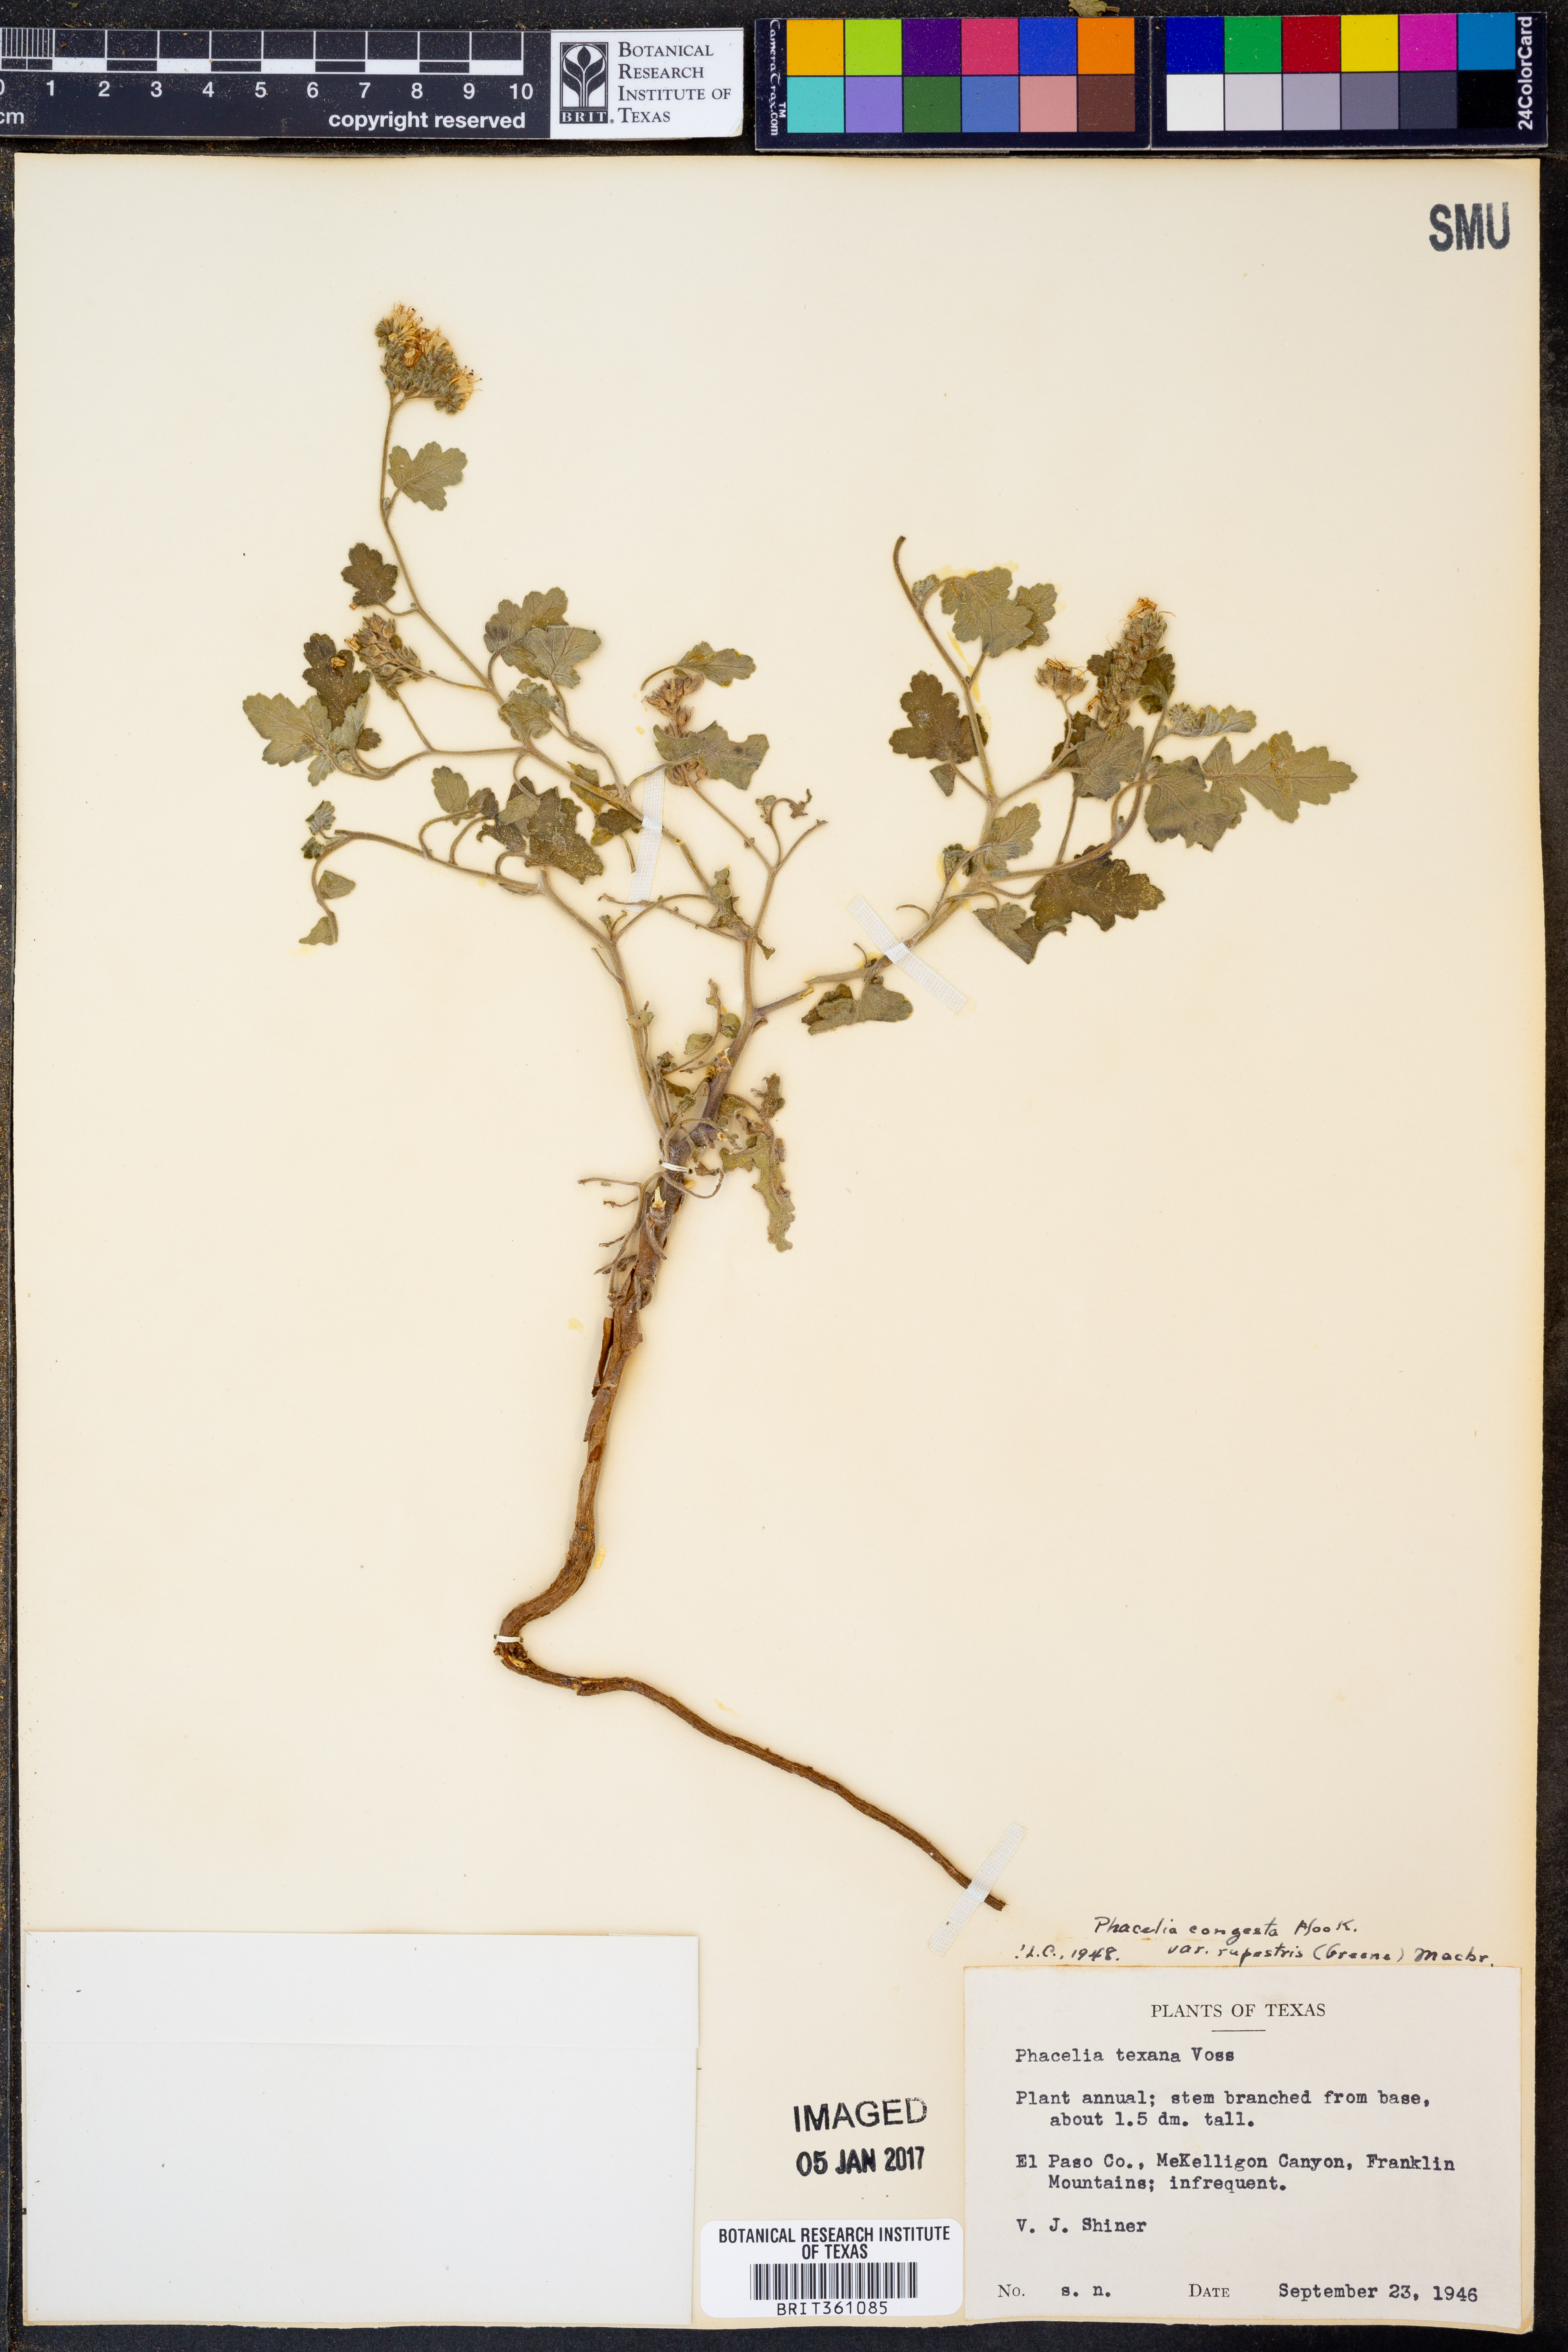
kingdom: Plantae
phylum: Tracheophyta
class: Magnoliopsida
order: Boraginales
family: Hydrophyllaceae
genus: Phacelia
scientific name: Phacelia rupestris
